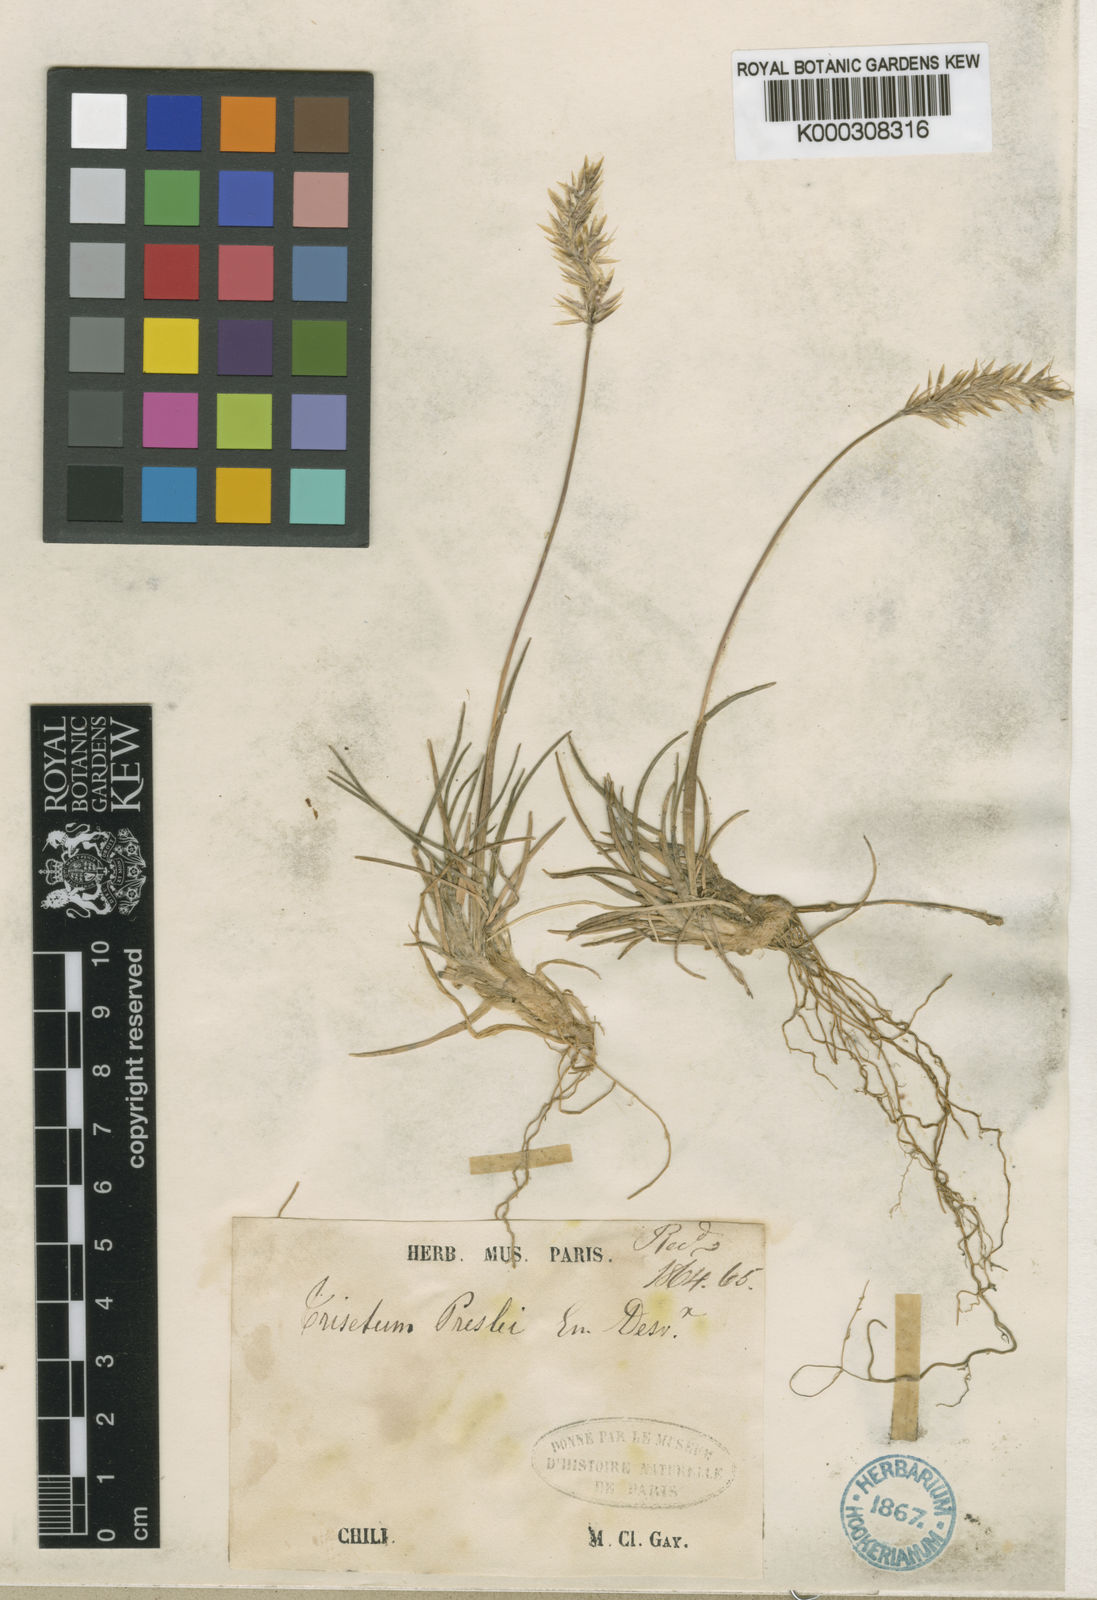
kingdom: Plantae
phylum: Tracheophyta
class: Liliopsida
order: Poales
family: Poaceae
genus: Koeleria
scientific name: Koeleria preslii
